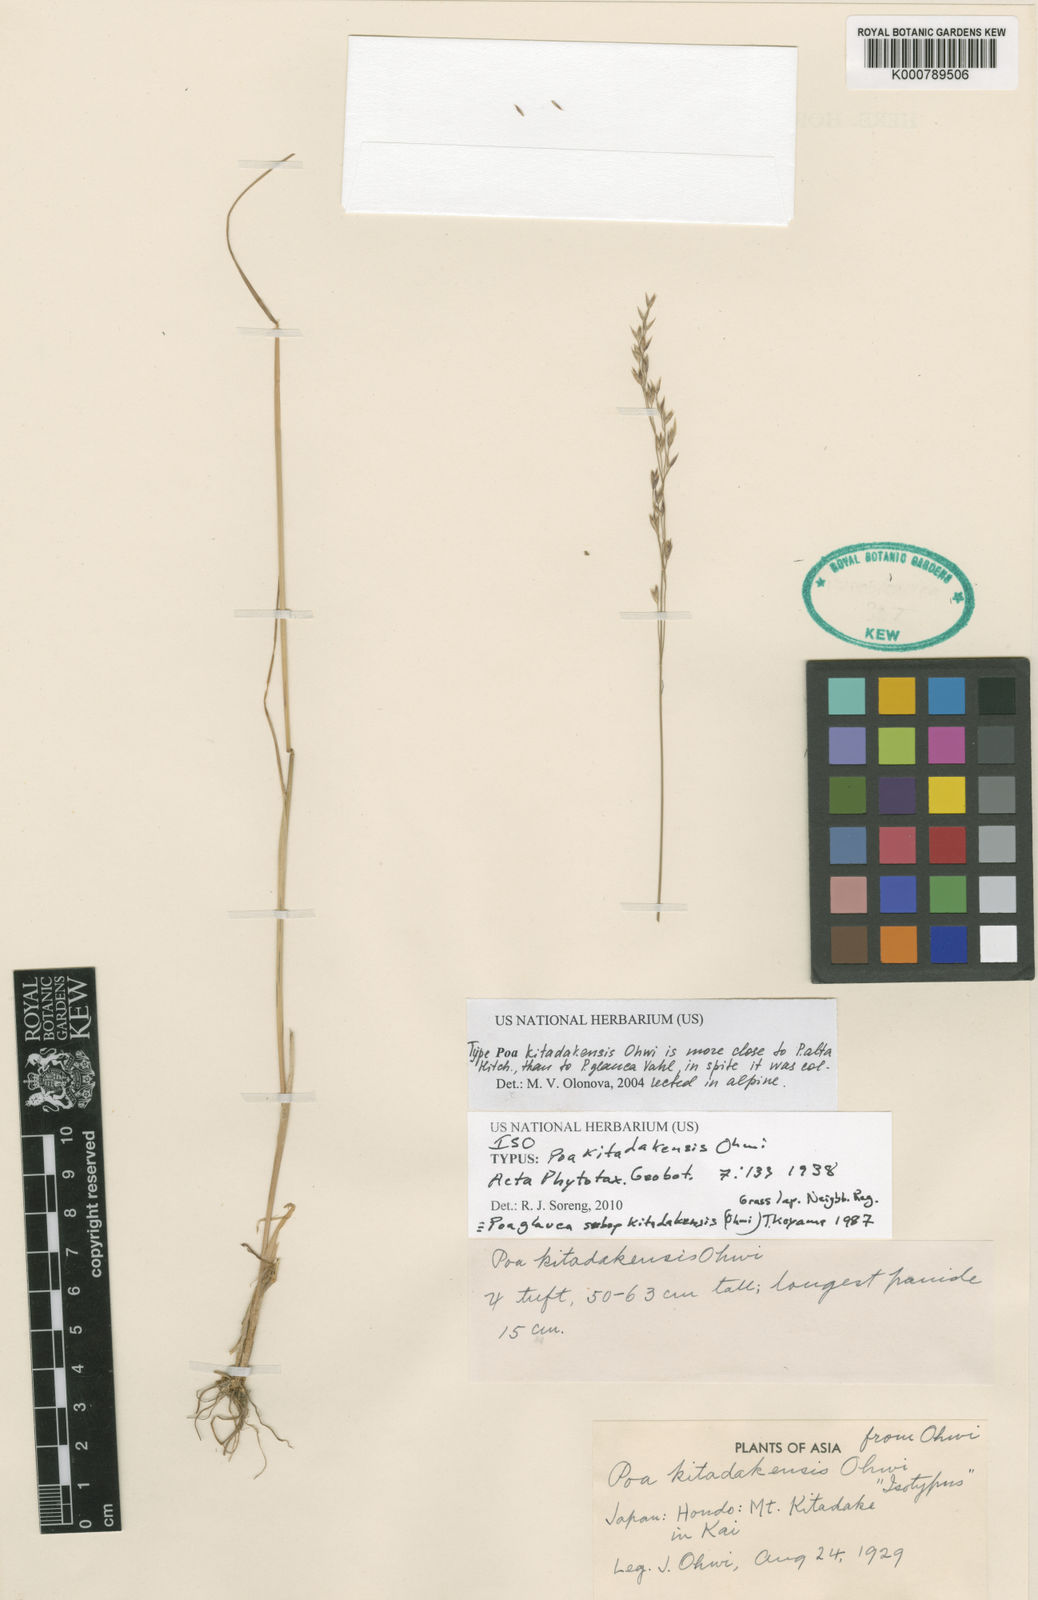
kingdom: Plantae
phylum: Tracheophyta
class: Liliopsida
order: Poales
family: Poaceae
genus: Poa
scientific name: Poa glauca
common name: Glaucous bluegrass
